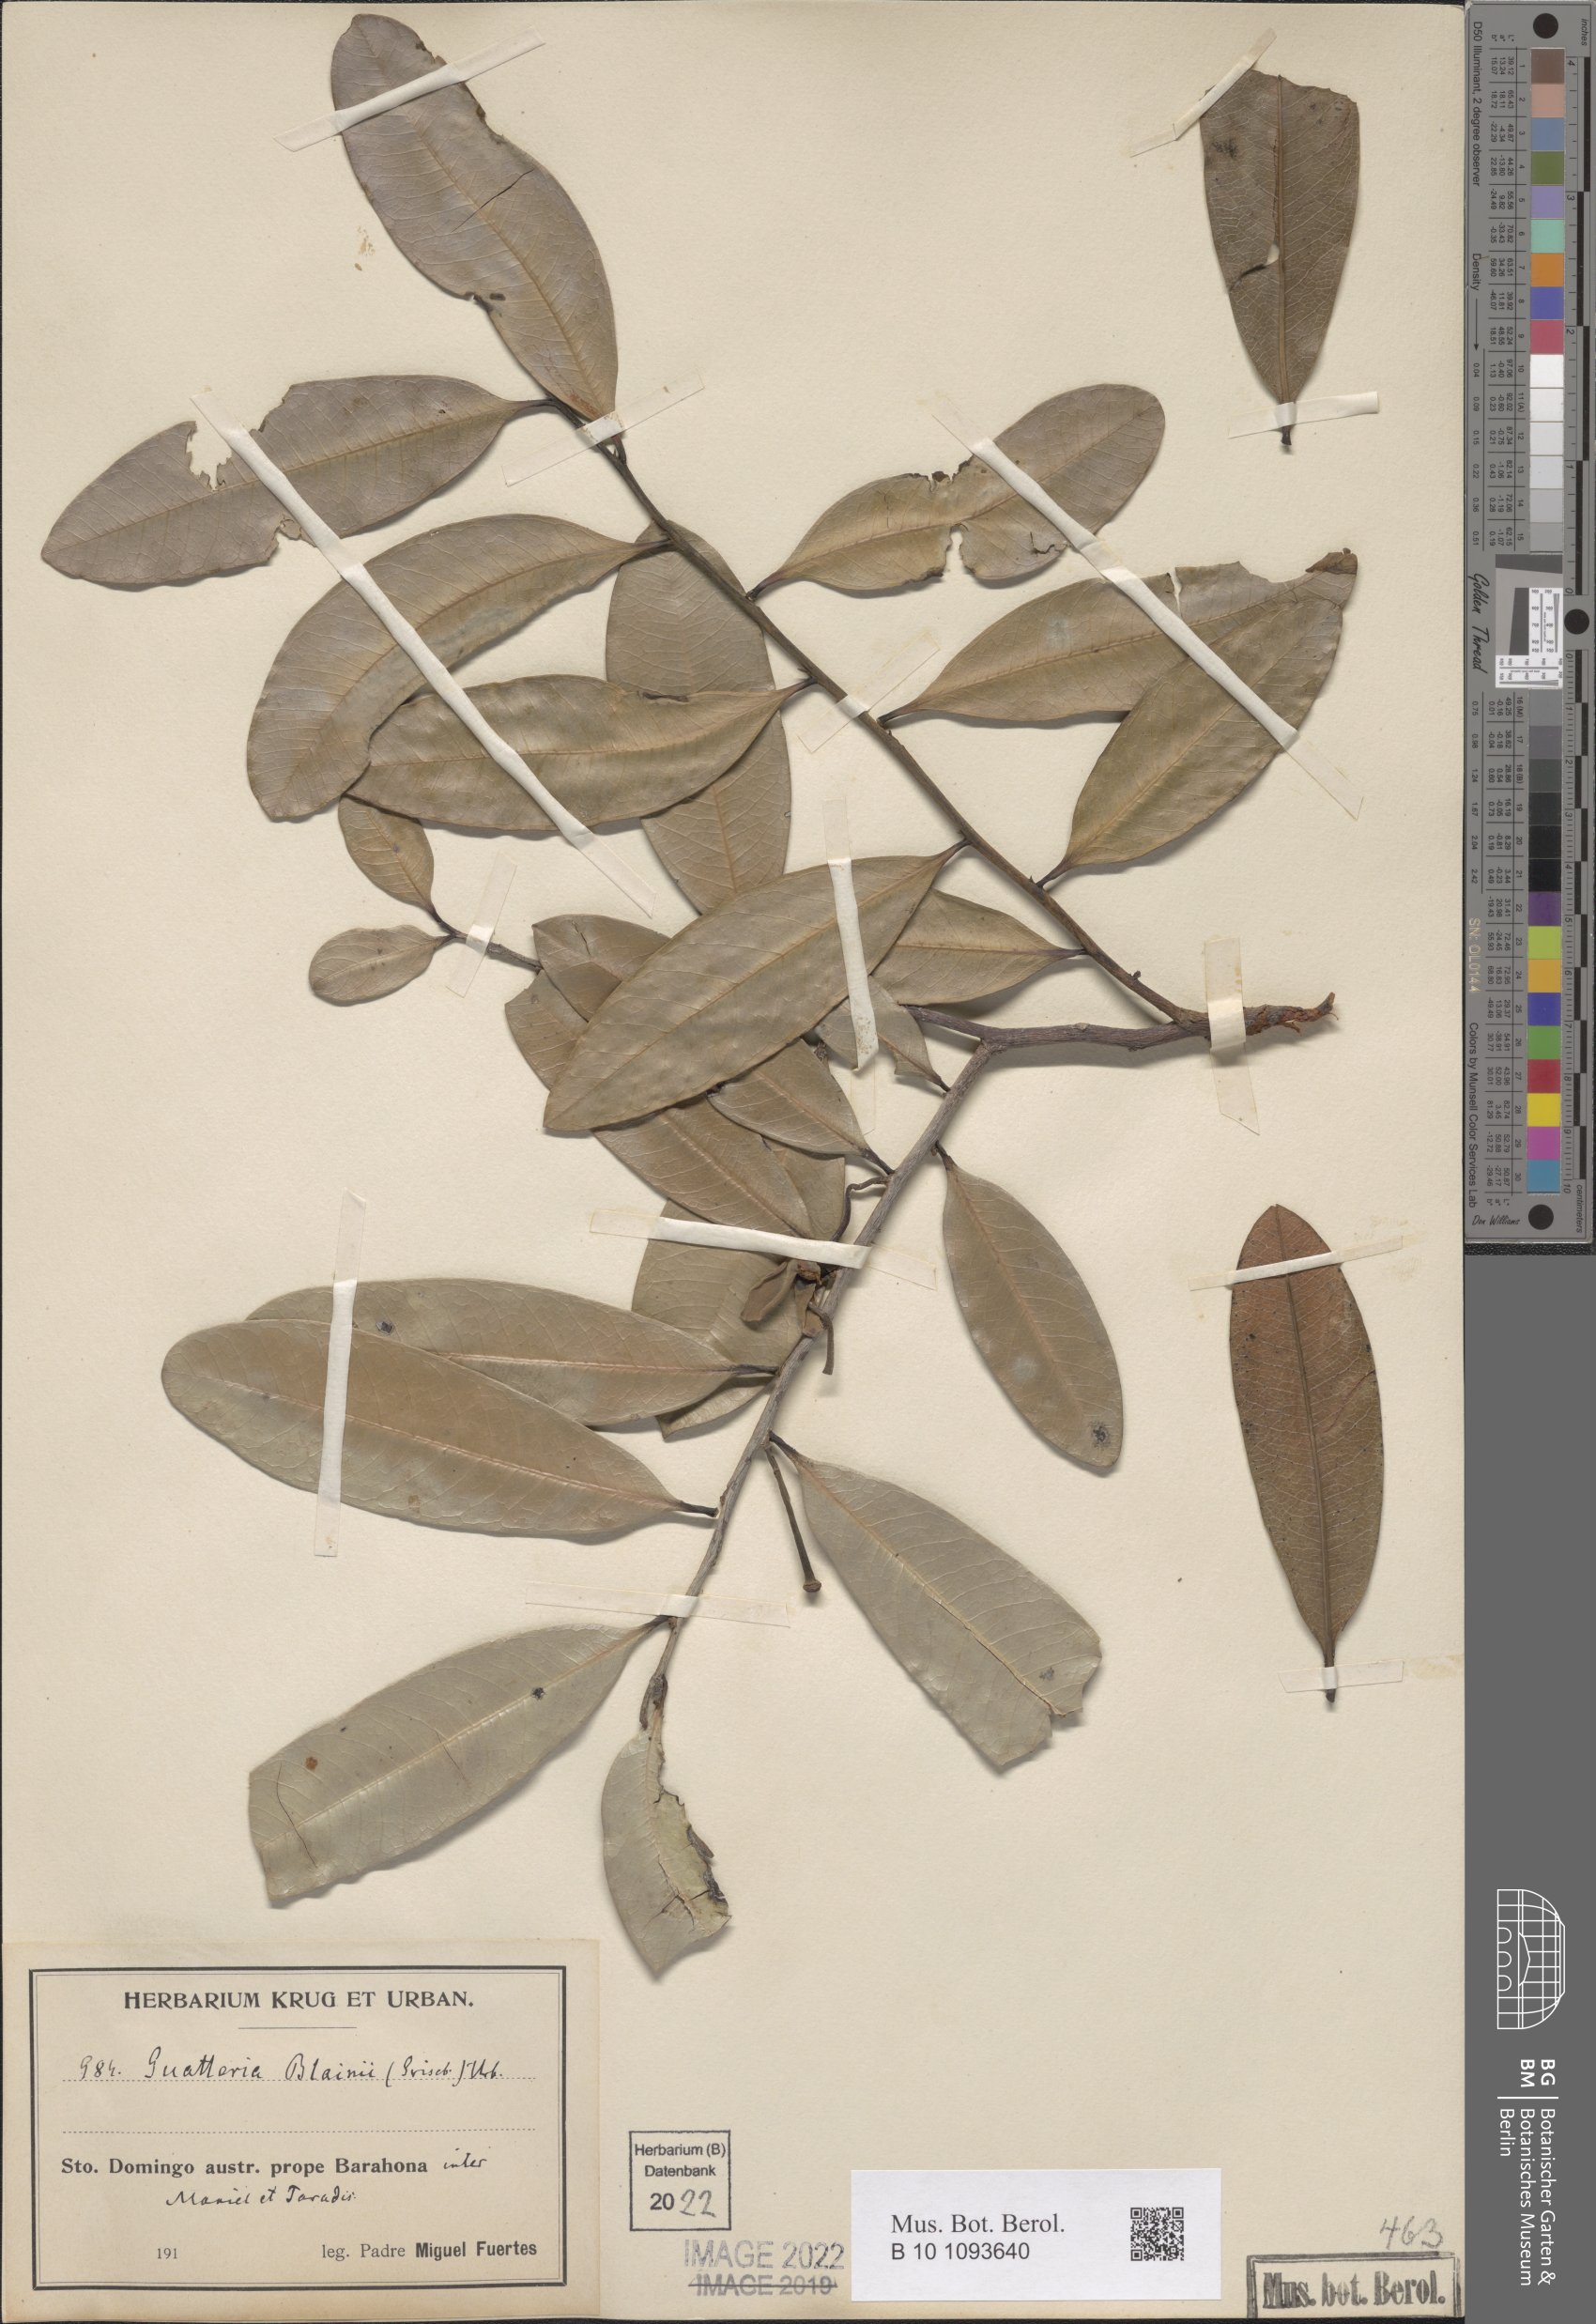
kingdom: Plantae
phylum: Tracheophyta
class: Magnoliopsida
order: Magnoliales
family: Annonaceae
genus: Guatteria
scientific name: Guatteria blainii
